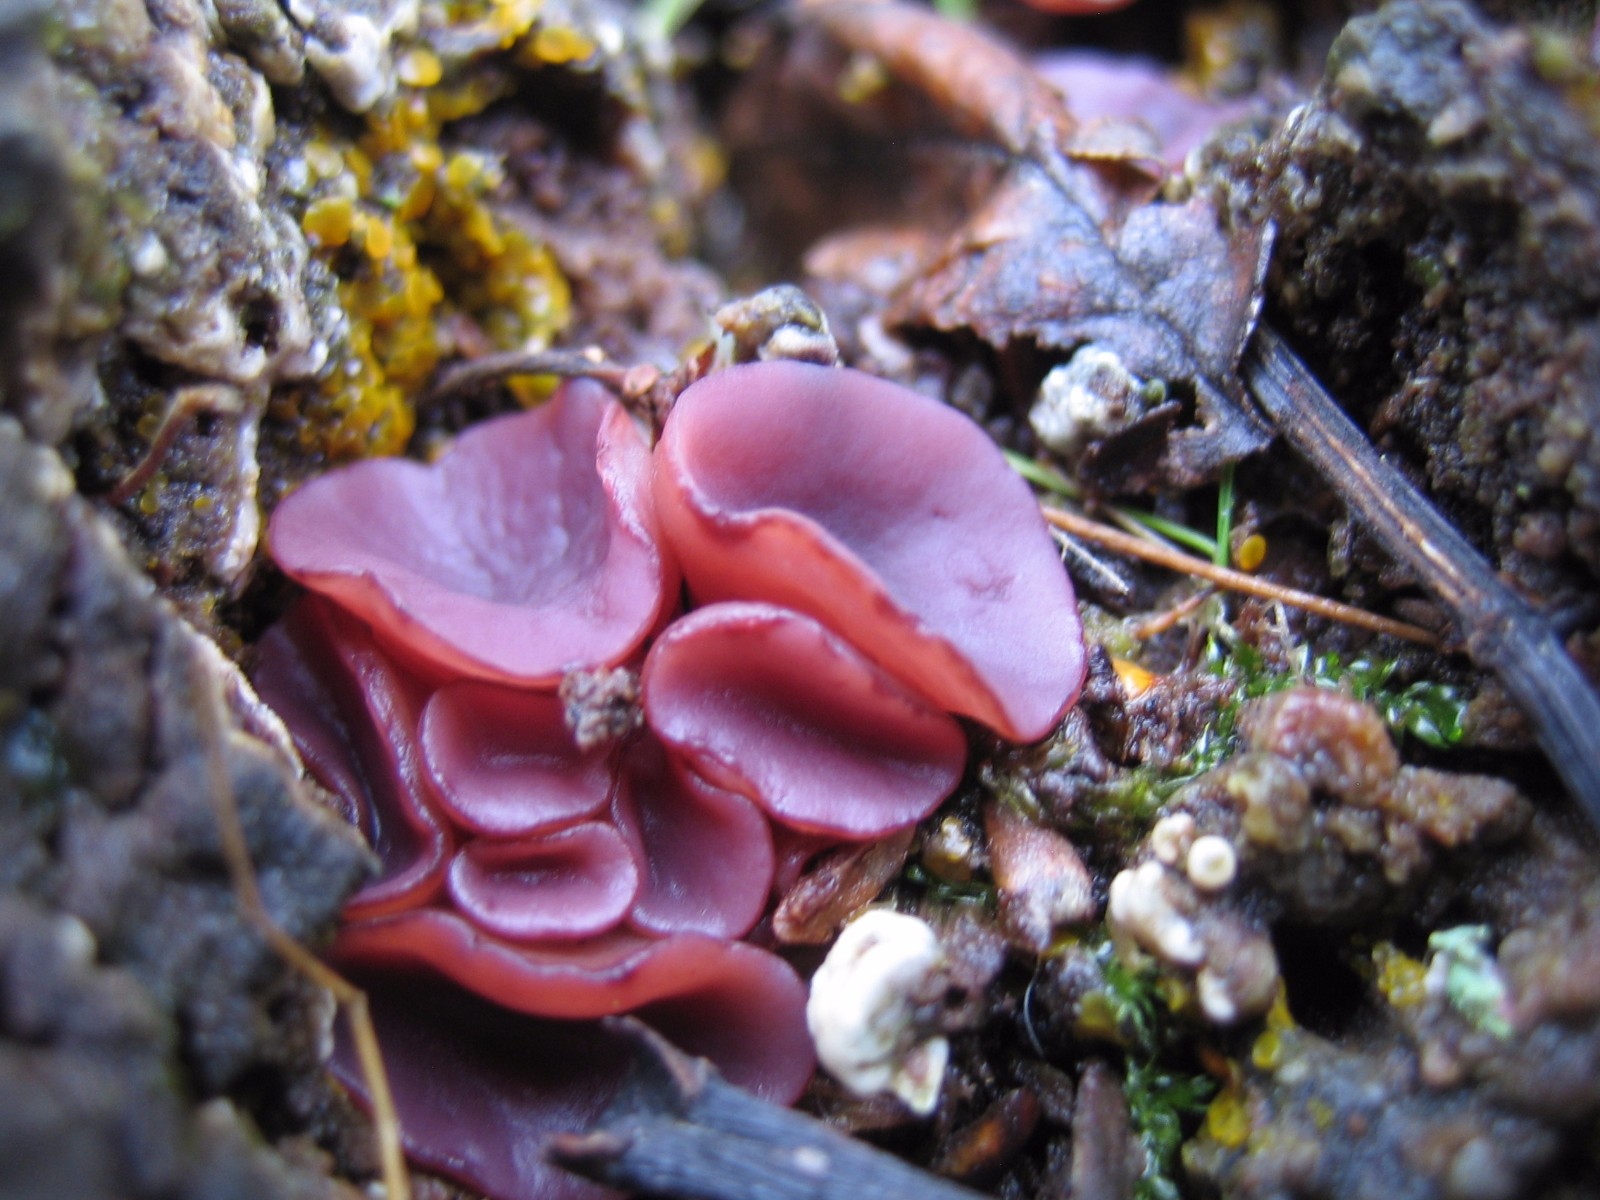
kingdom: Fungi
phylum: Ascomycota
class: Leotiomycetes
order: Helotiales
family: Gelatinodiscaceae
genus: Ascocoryne
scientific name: Ascocoryne cylichnium
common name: stor sejskive
